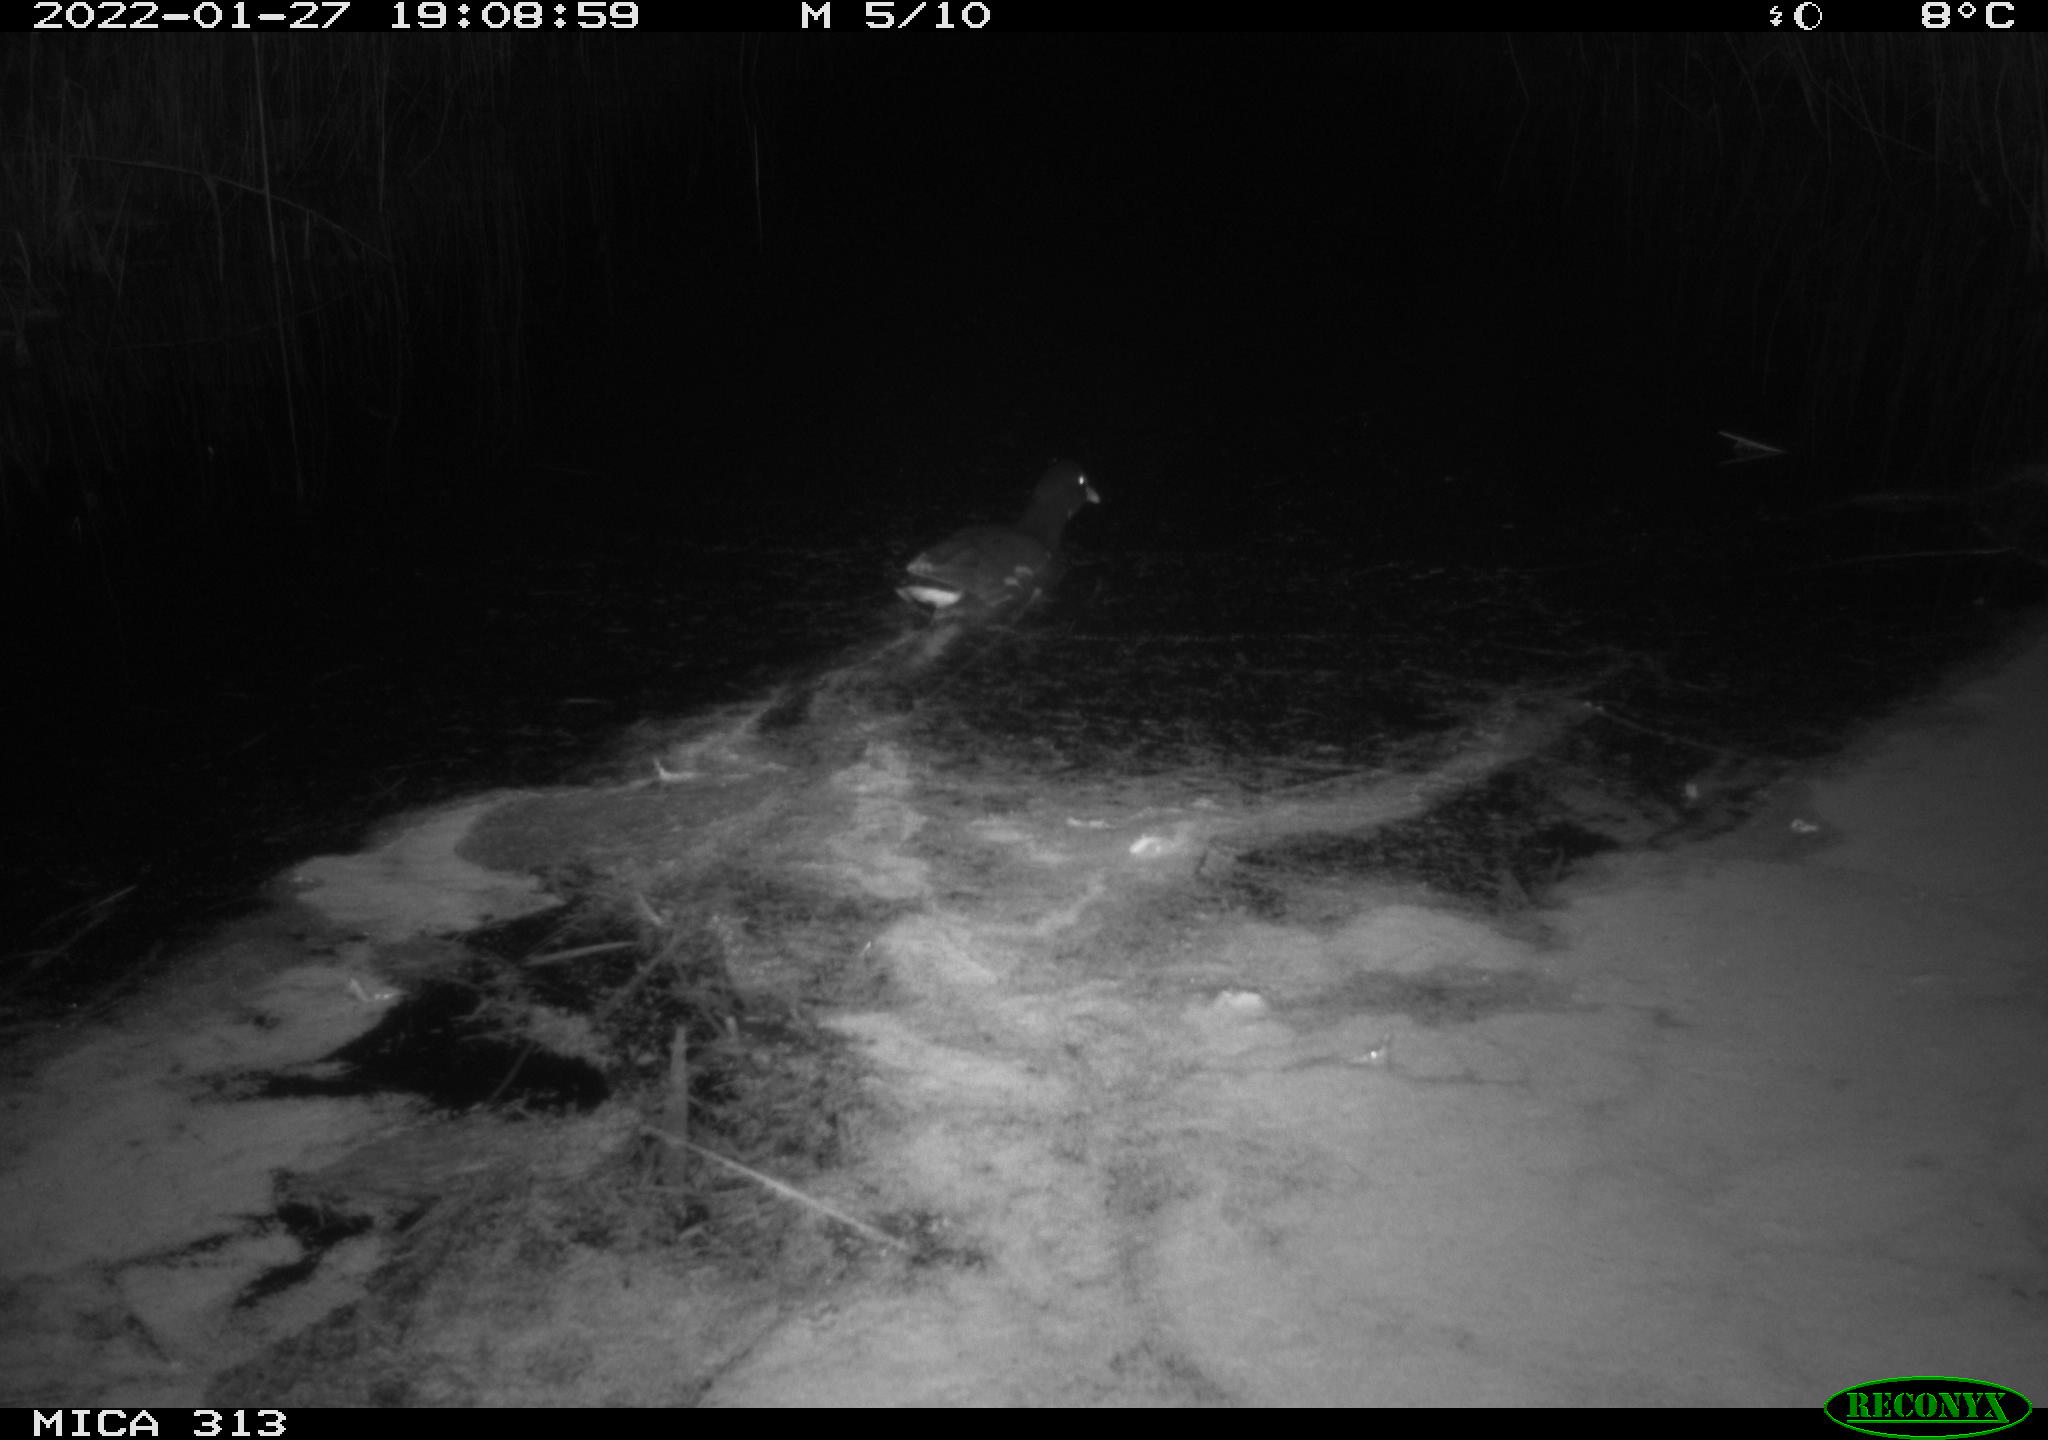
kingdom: Animalia
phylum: Chordata
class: Aves
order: Gruiformes
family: Rallidae
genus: Gallinula
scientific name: Gallinula chloropus
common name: Common moorhen
